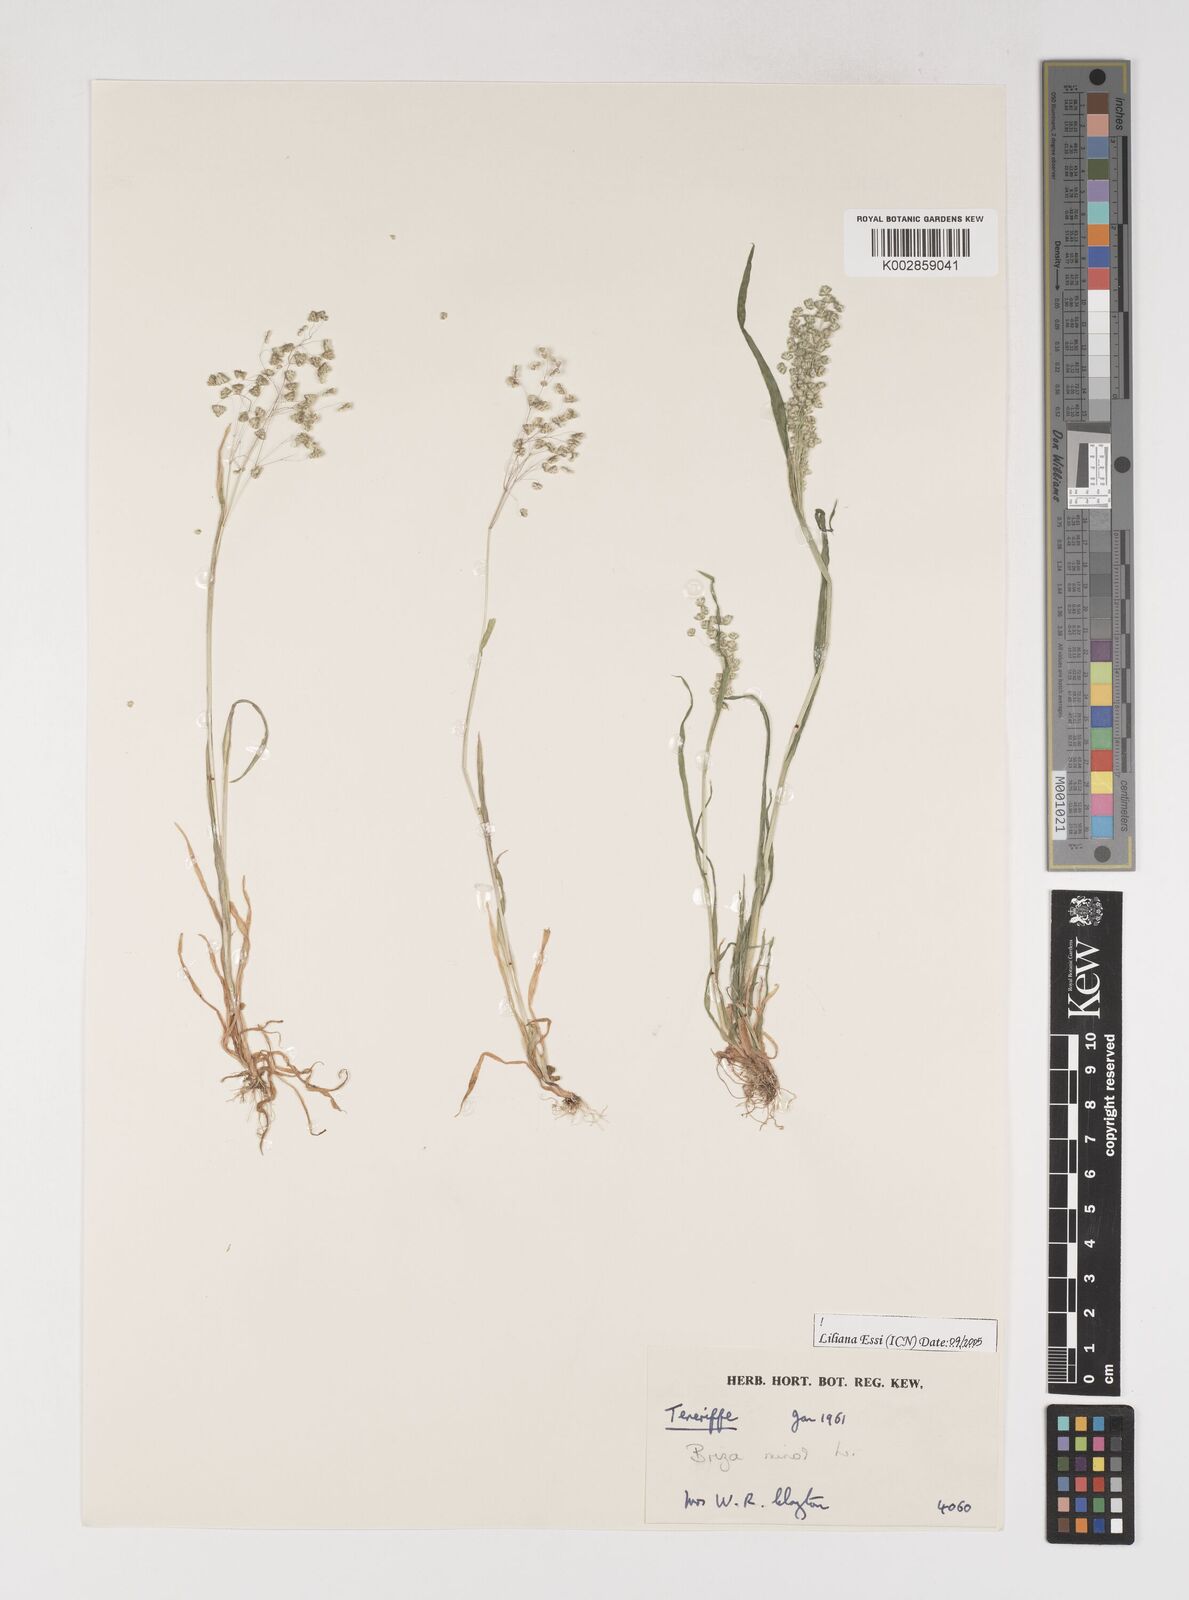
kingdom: Plantae
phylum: Tracheophyta
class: Liliopsida
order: Poales
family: Poaceae
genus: Briza
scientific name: Briza minor
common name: Lesser quaking-grass
